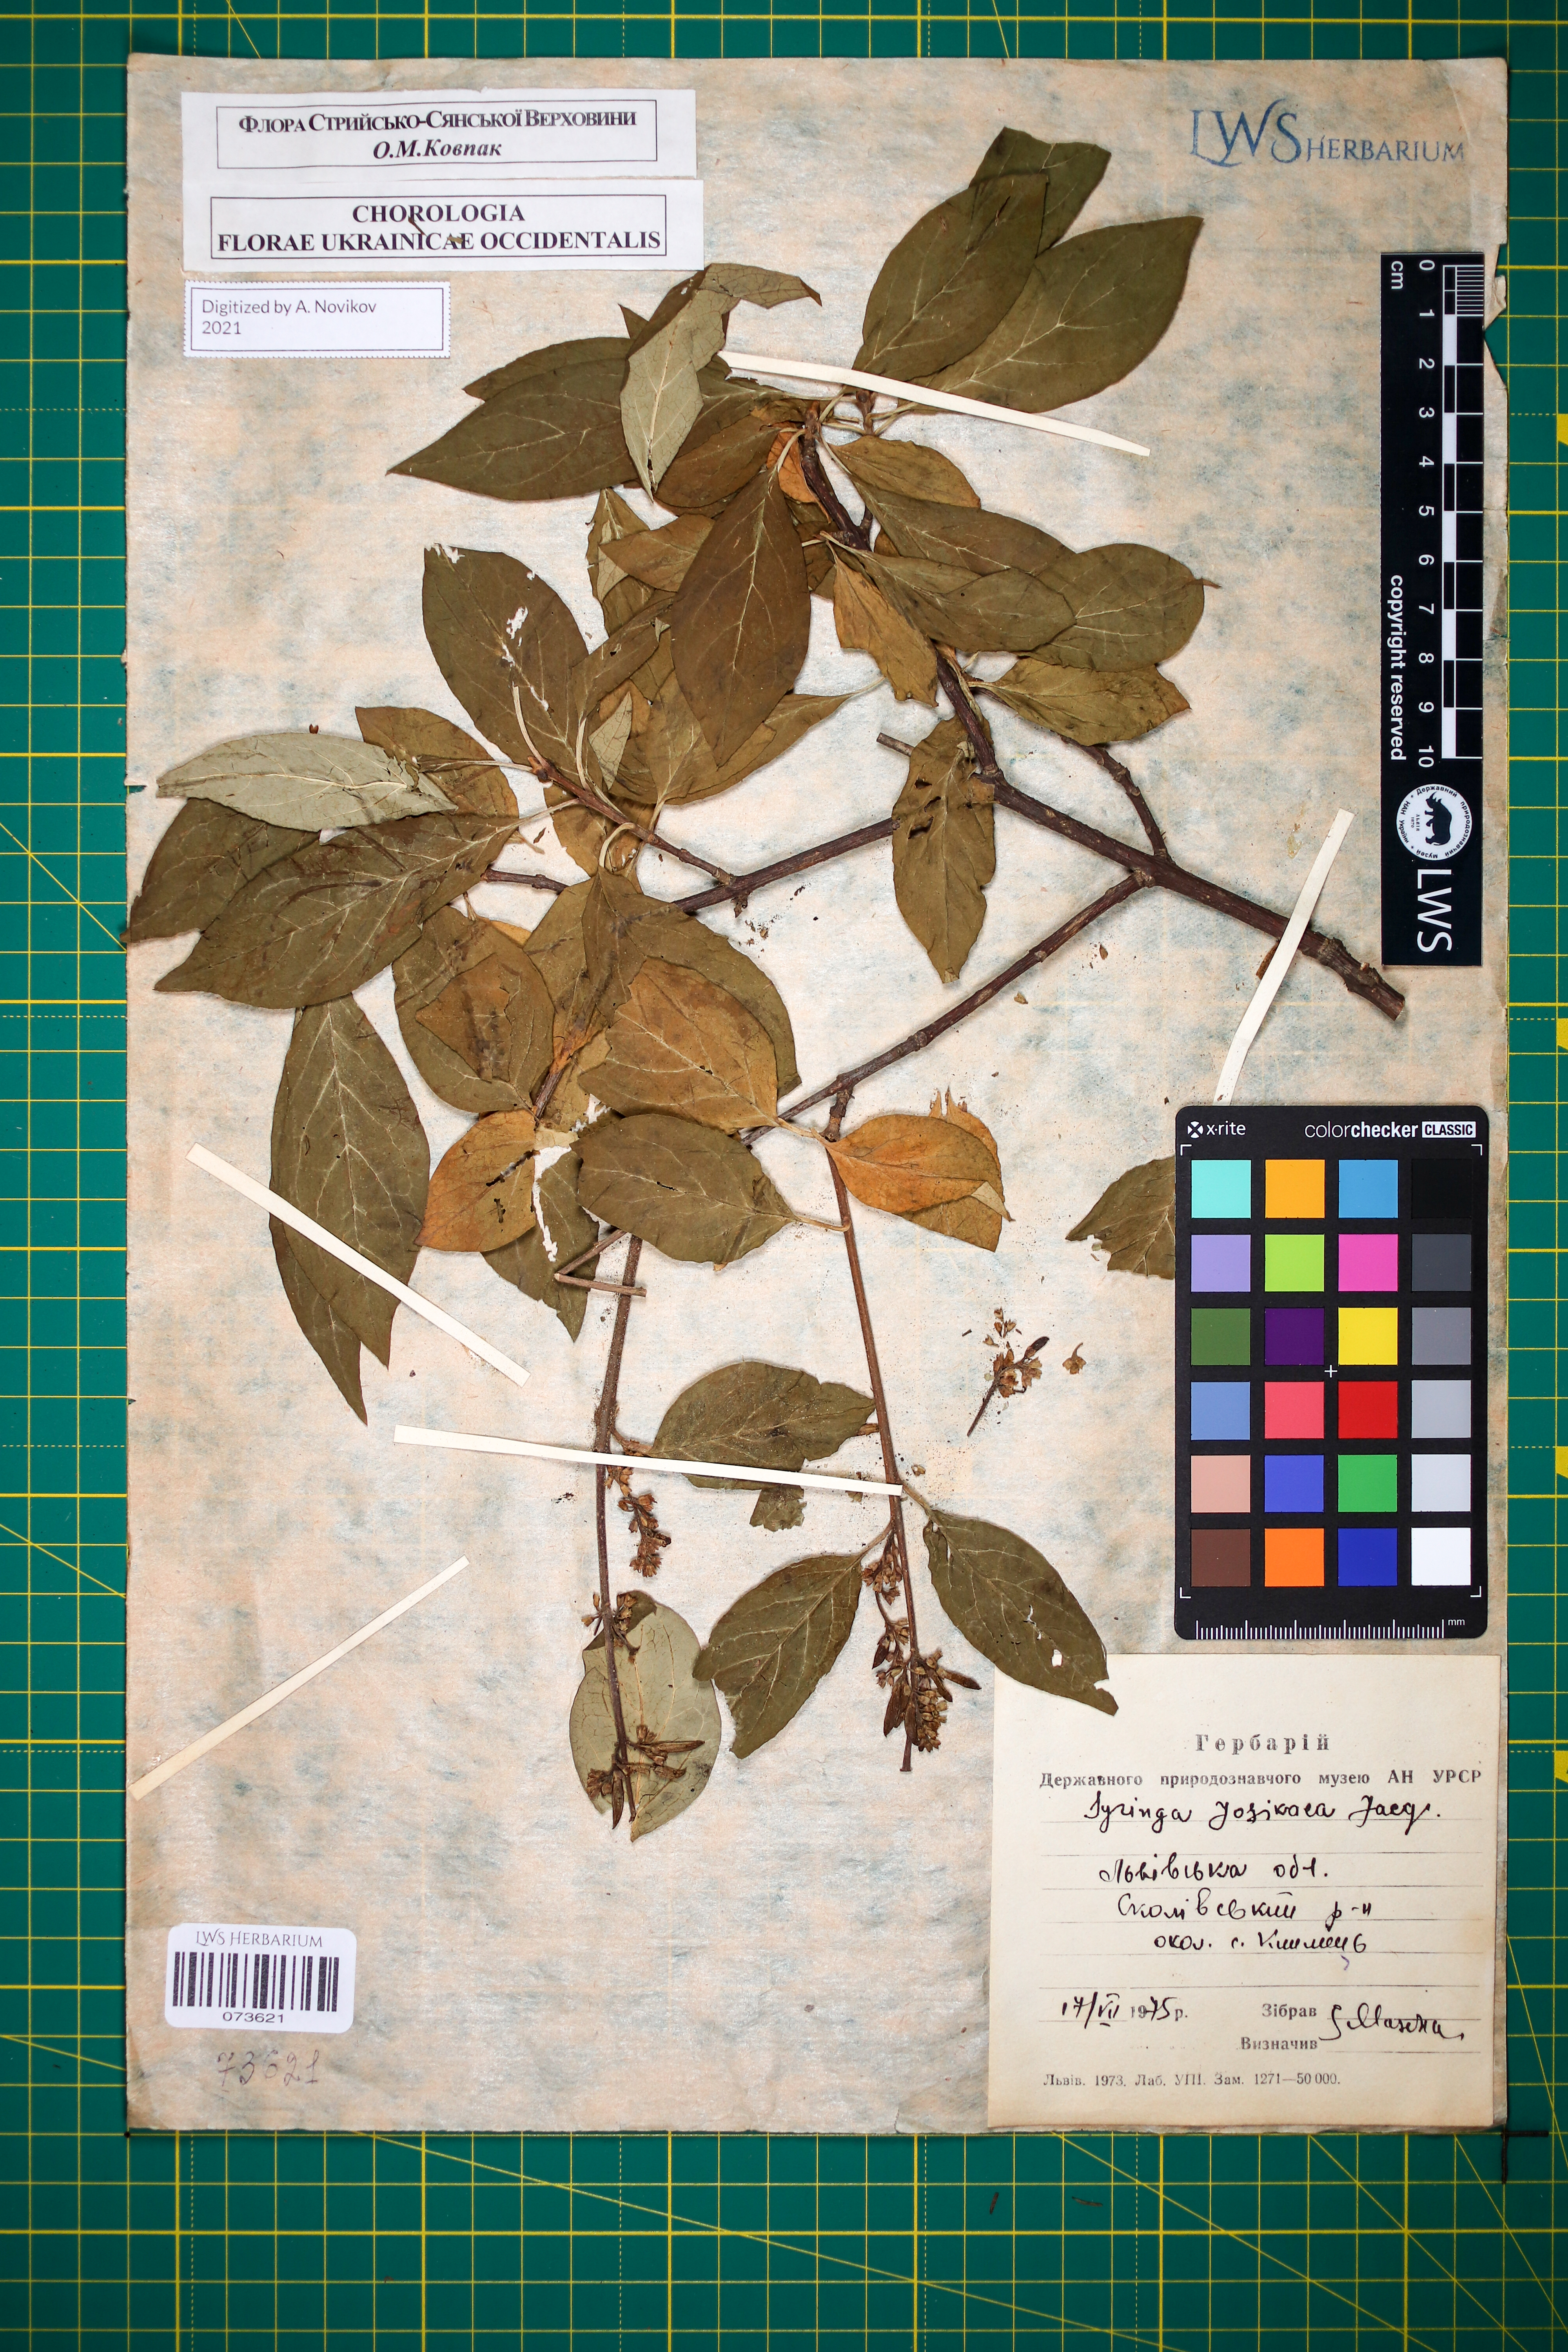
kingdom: Plantae
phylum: Tracheophyta
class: Magnoliopsida
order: Lamiales
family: Oleaceae
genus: Syringa
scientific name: Syringa josikaea
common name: Hungarian lilac
